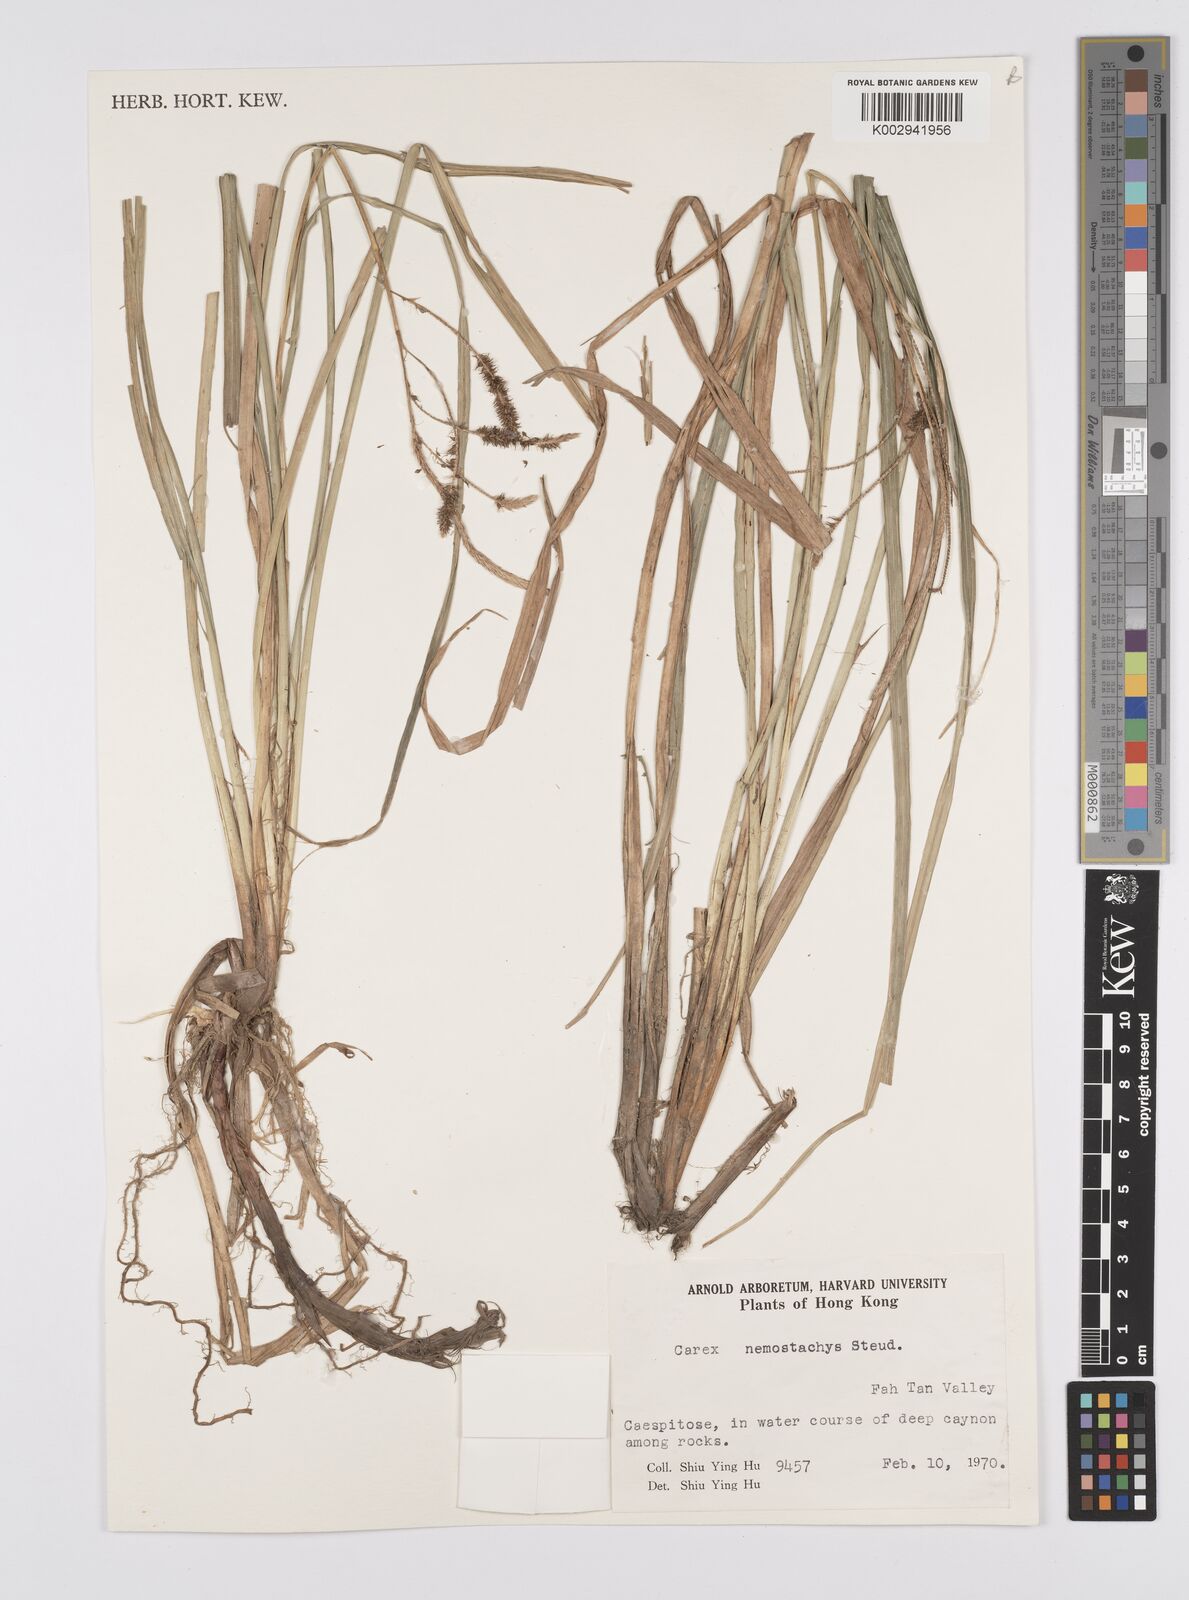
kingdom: Plantae
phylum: Tracheophyta
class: Liliopsida
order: Poales
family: Cyperaceae
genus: Carex
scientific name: Carex nemostachys
